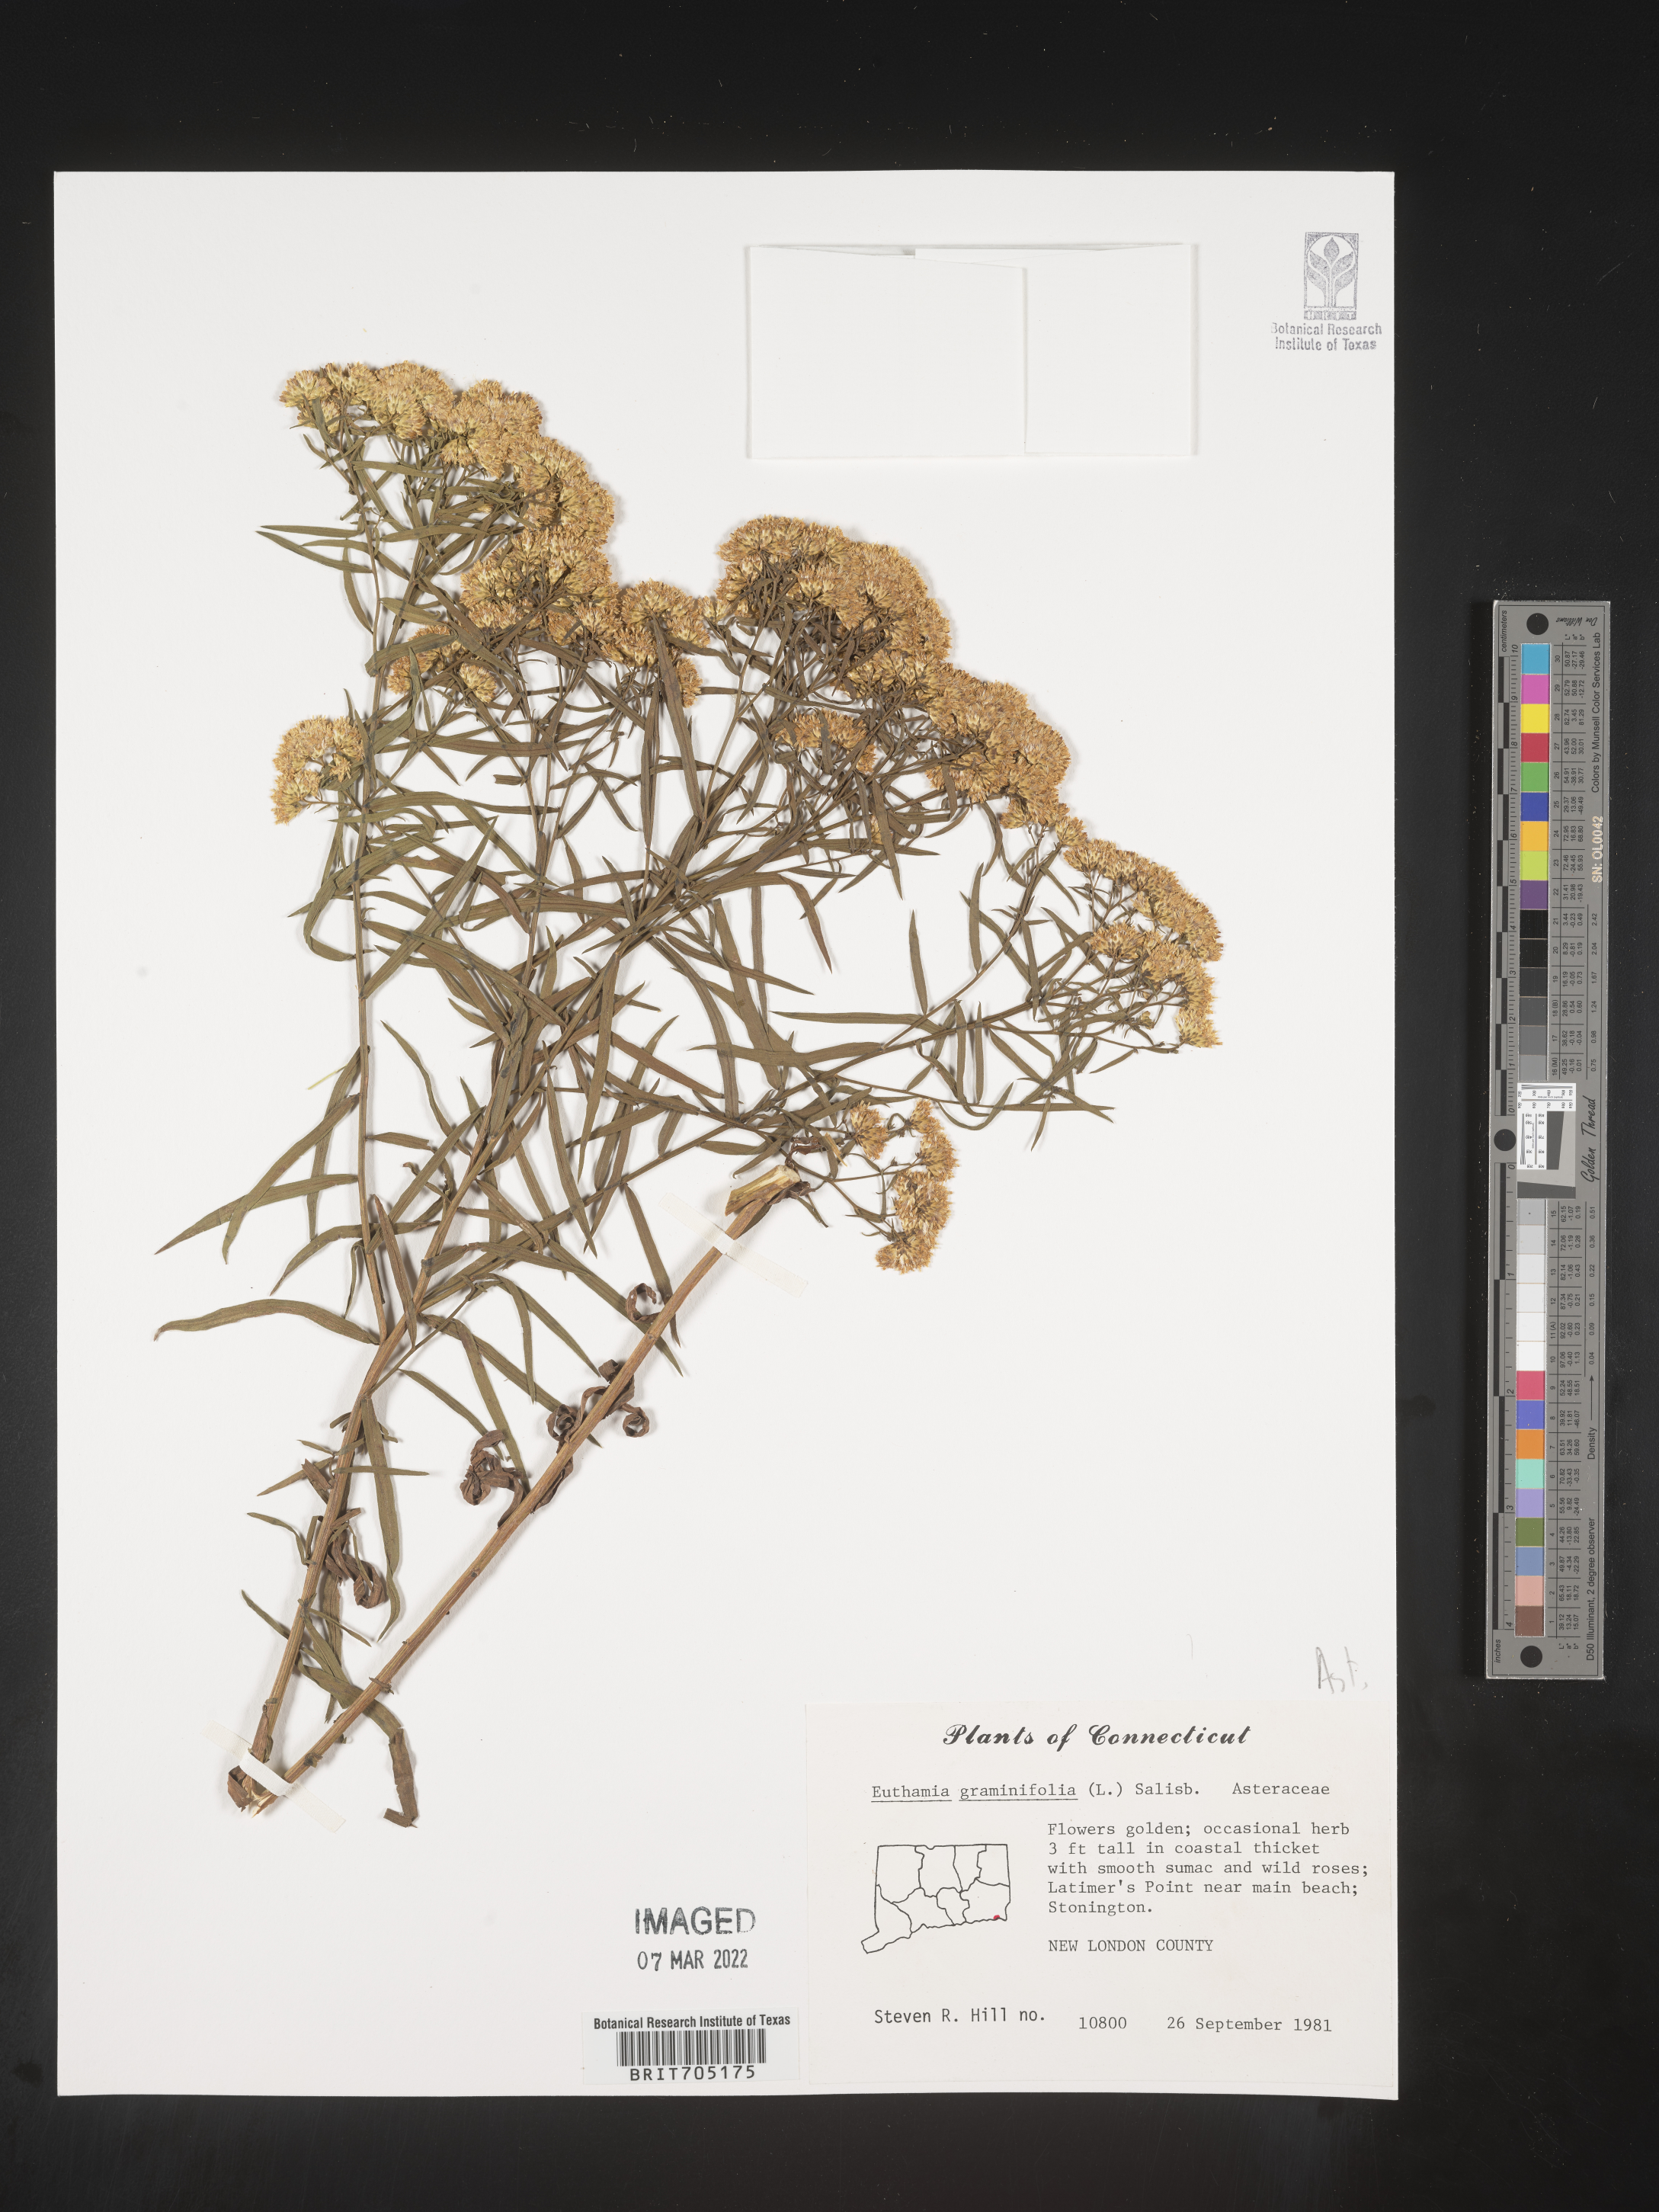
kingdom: Plantae
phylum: Tracheophyta
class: Magnoliopsida
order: Asterales
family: Asteraceae
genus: Euthamia
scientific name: Euthamia
